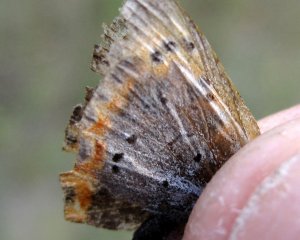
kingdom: Animalia
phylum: Arthropoda
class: Insecta
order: Lepidoptera
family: Lycaenidae
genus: Lycaena
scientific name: Lycaena phlaeas
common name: American Copper
